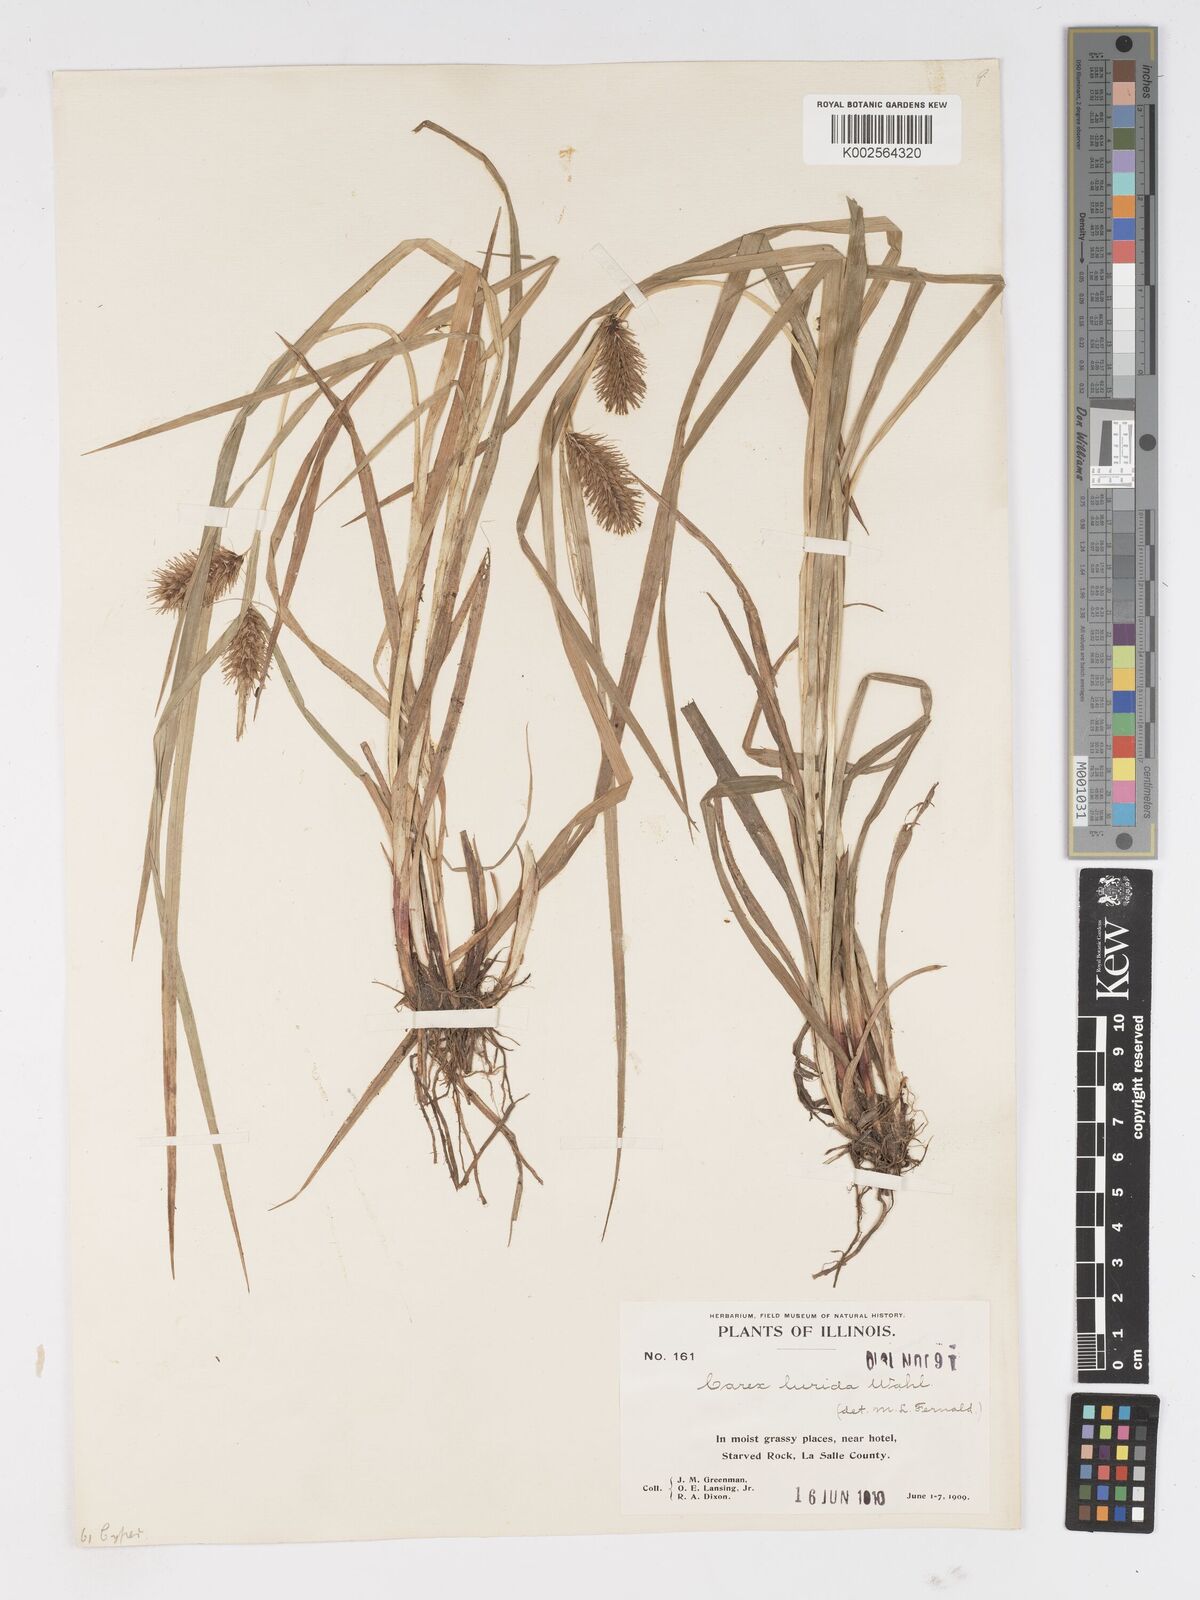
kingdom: Plantae
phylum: Tracheophyta
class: Liliopsida
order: Poales
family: Cyperaceae
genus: Carex
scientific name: Carex lurida
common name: Sallow sedge
